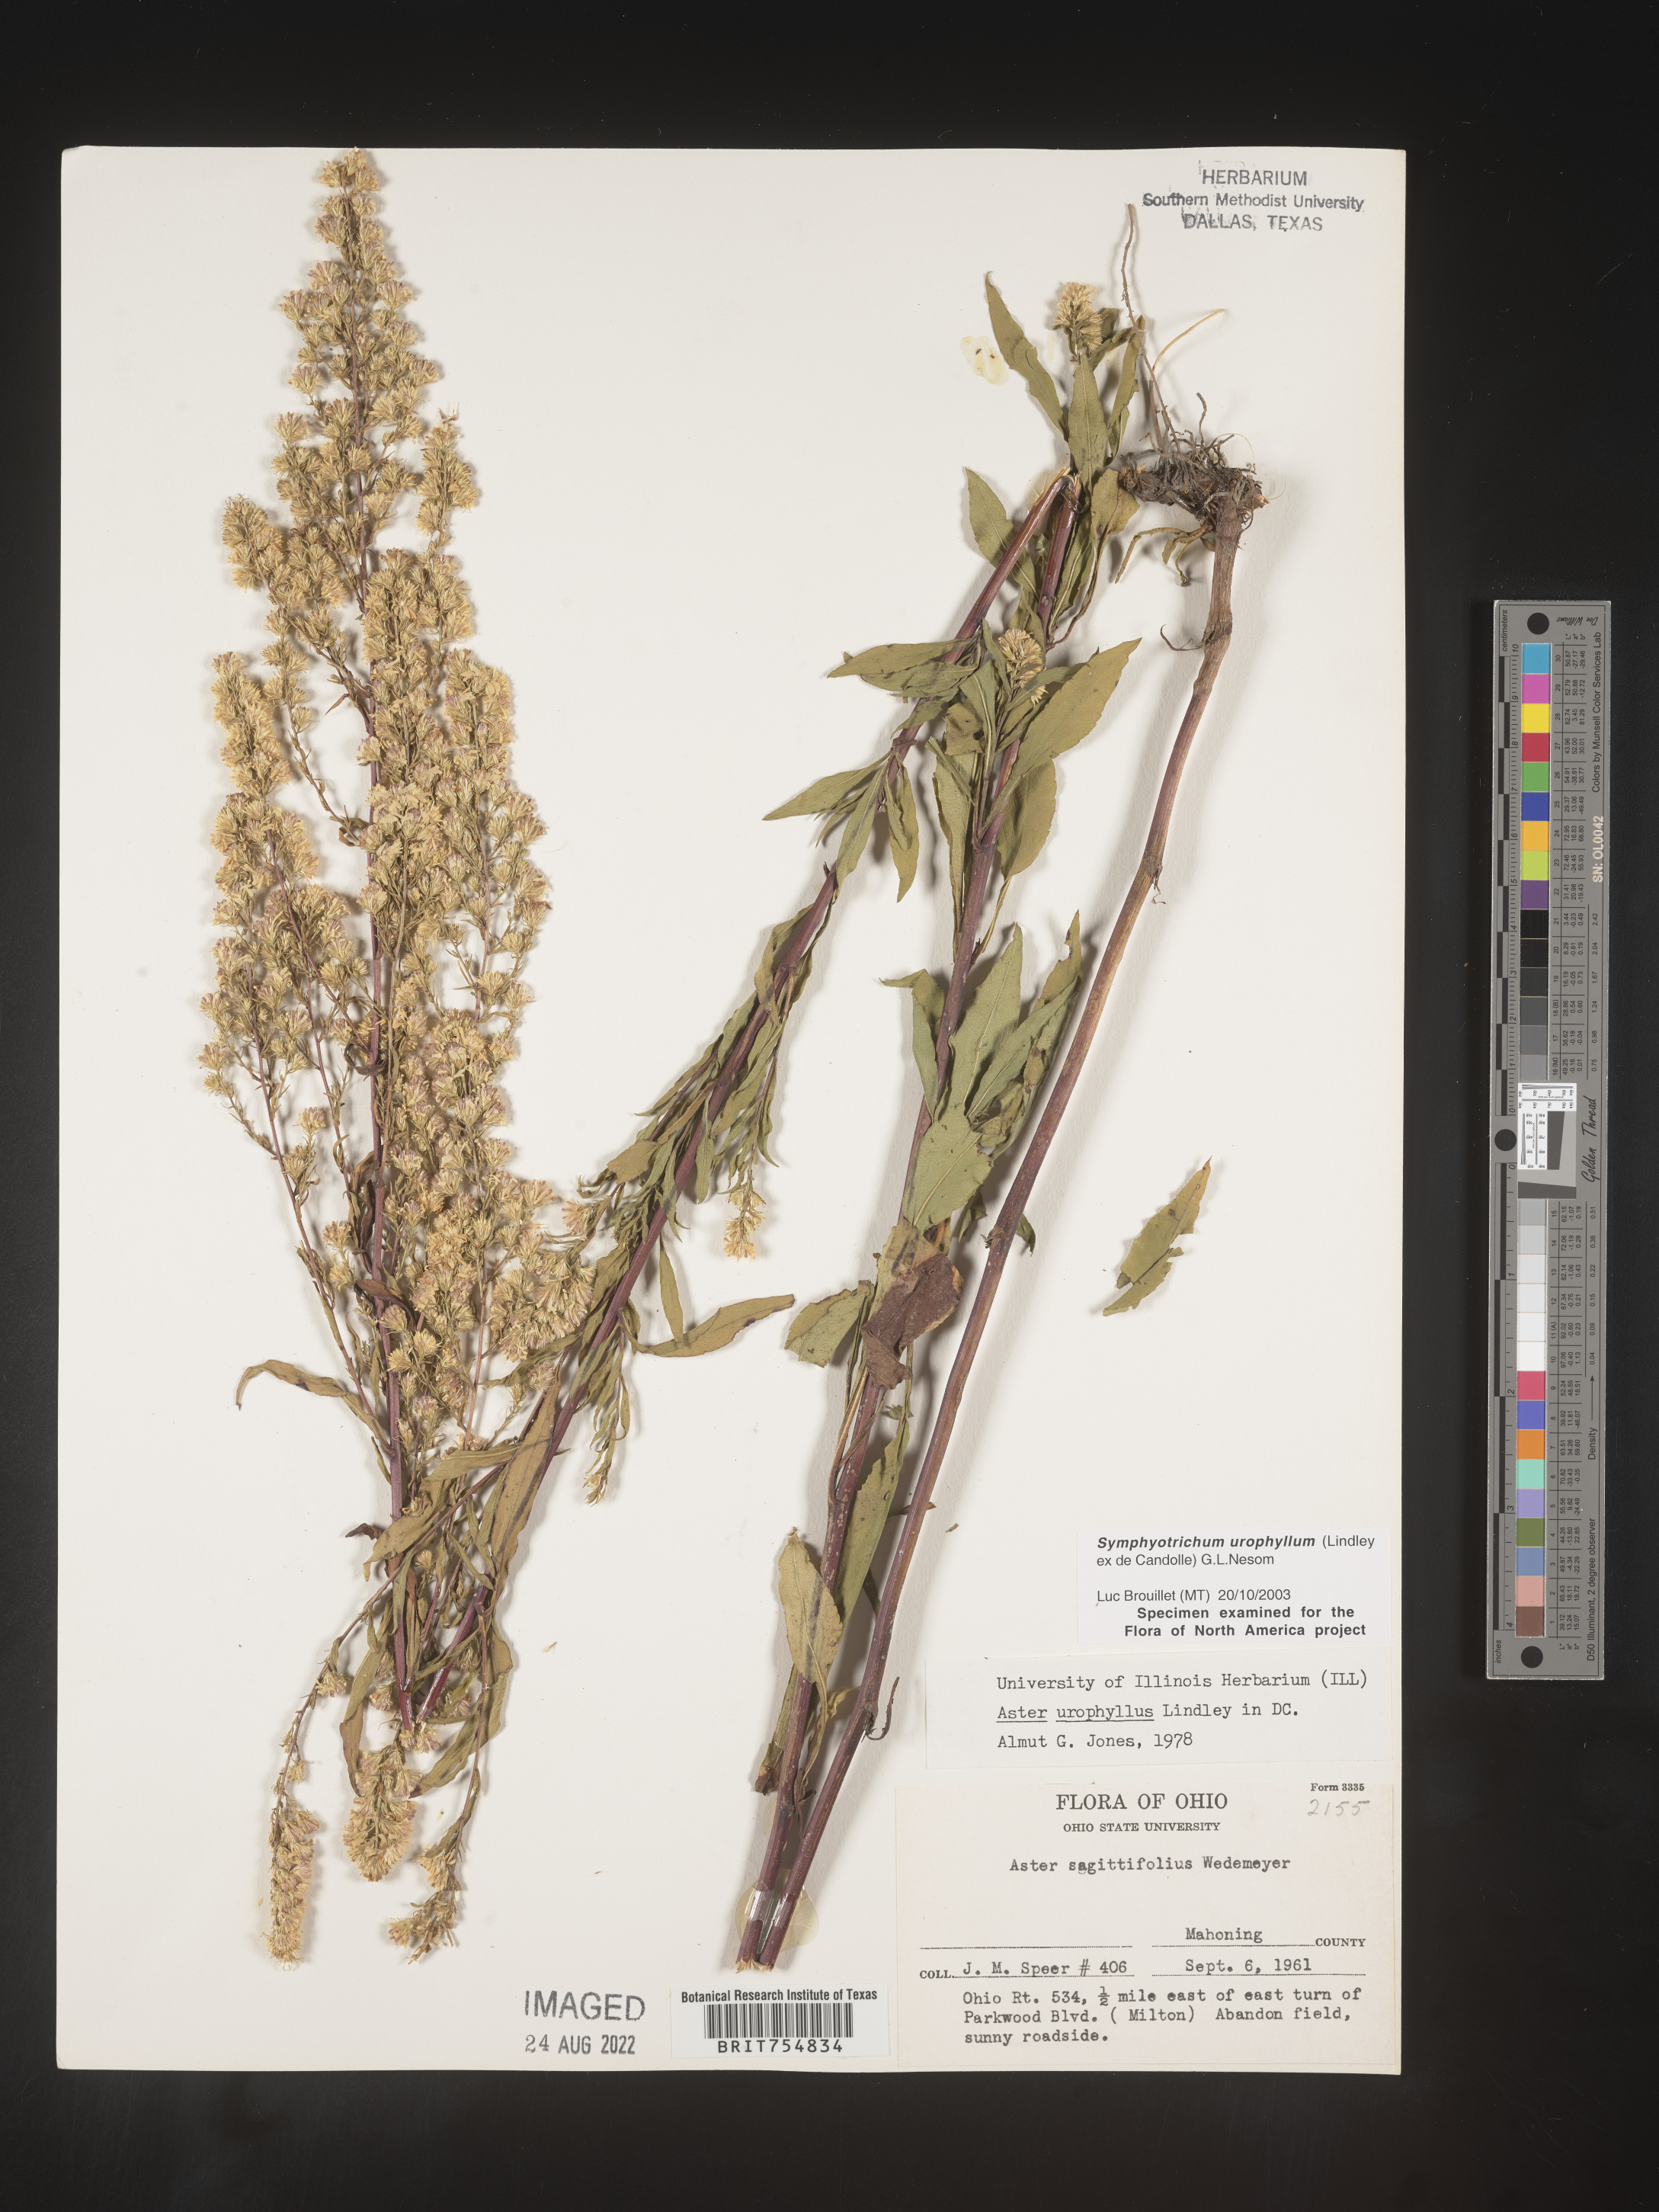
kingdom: Plantae
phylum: Tracheophyta
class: Magnoliopsida
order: Asterales
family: Asteraceae
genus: Symphyotrichum
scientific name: Symphyotrichum urophyllum
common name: Arrow-leaved aster
